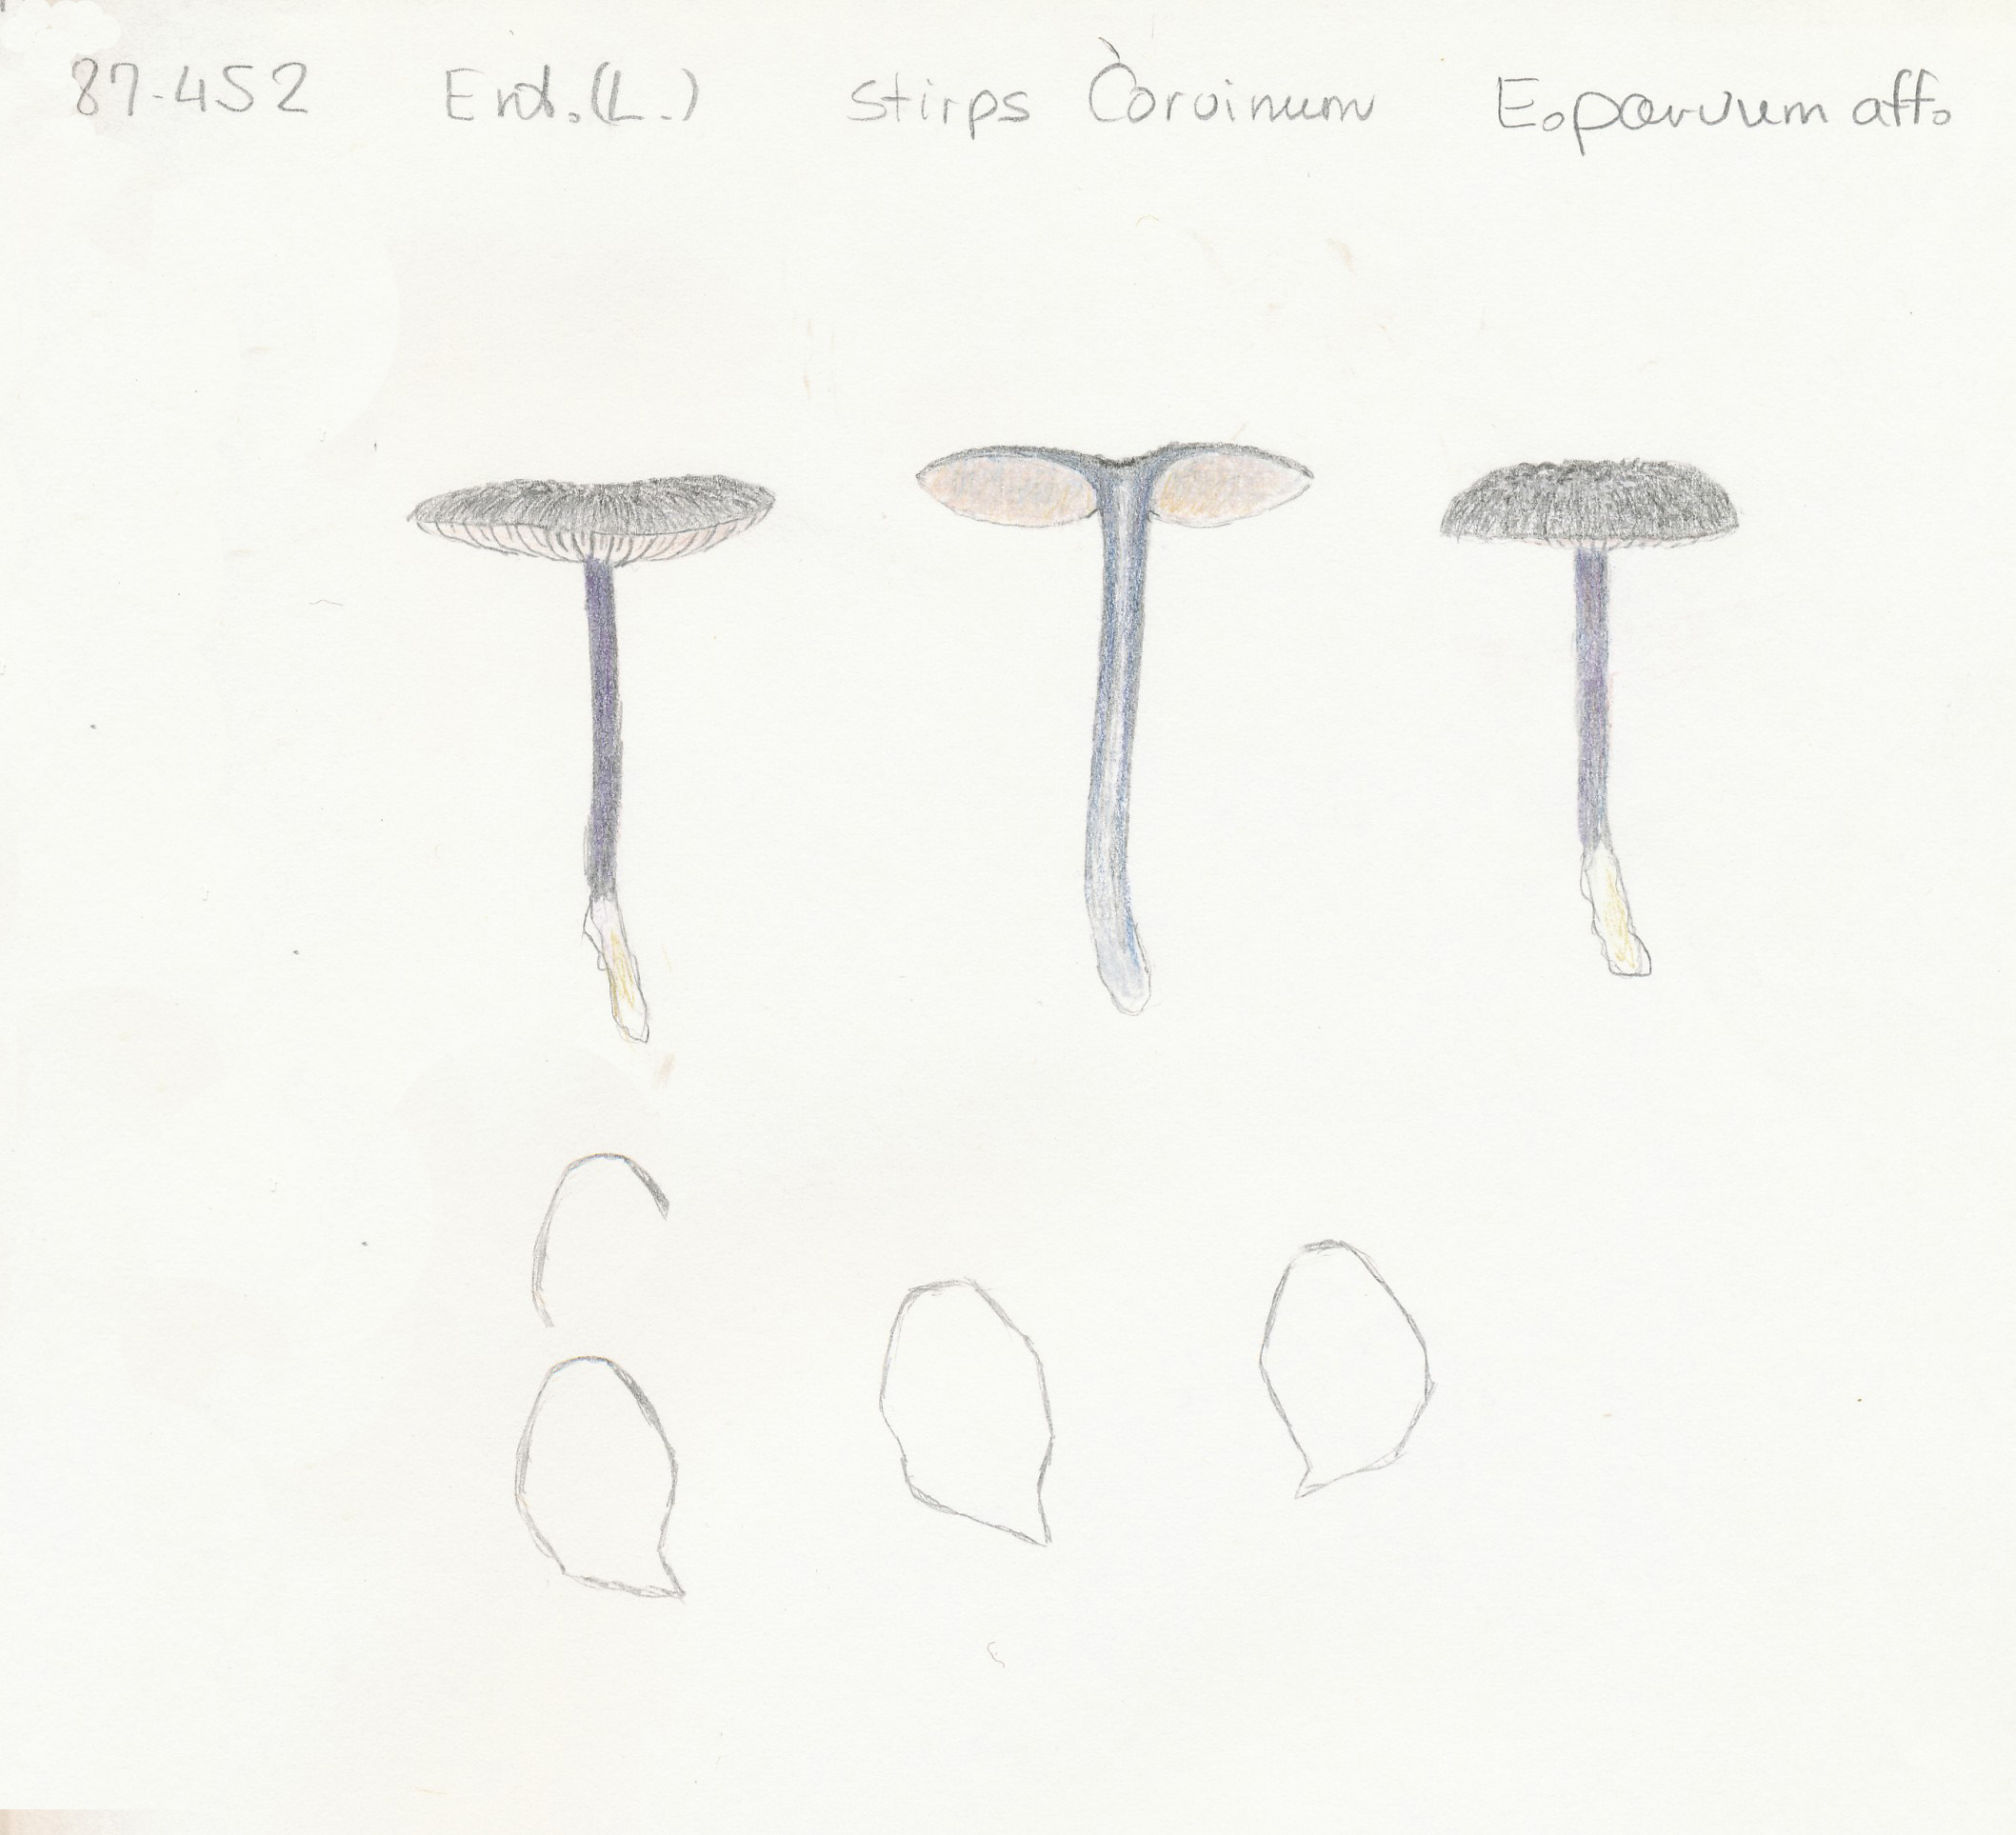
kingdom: Fungi
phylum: Basidiomycota
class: Agaricomycetes
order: Agaricales
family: Entolomataceae
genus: Entoloma
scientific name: Entoloma
